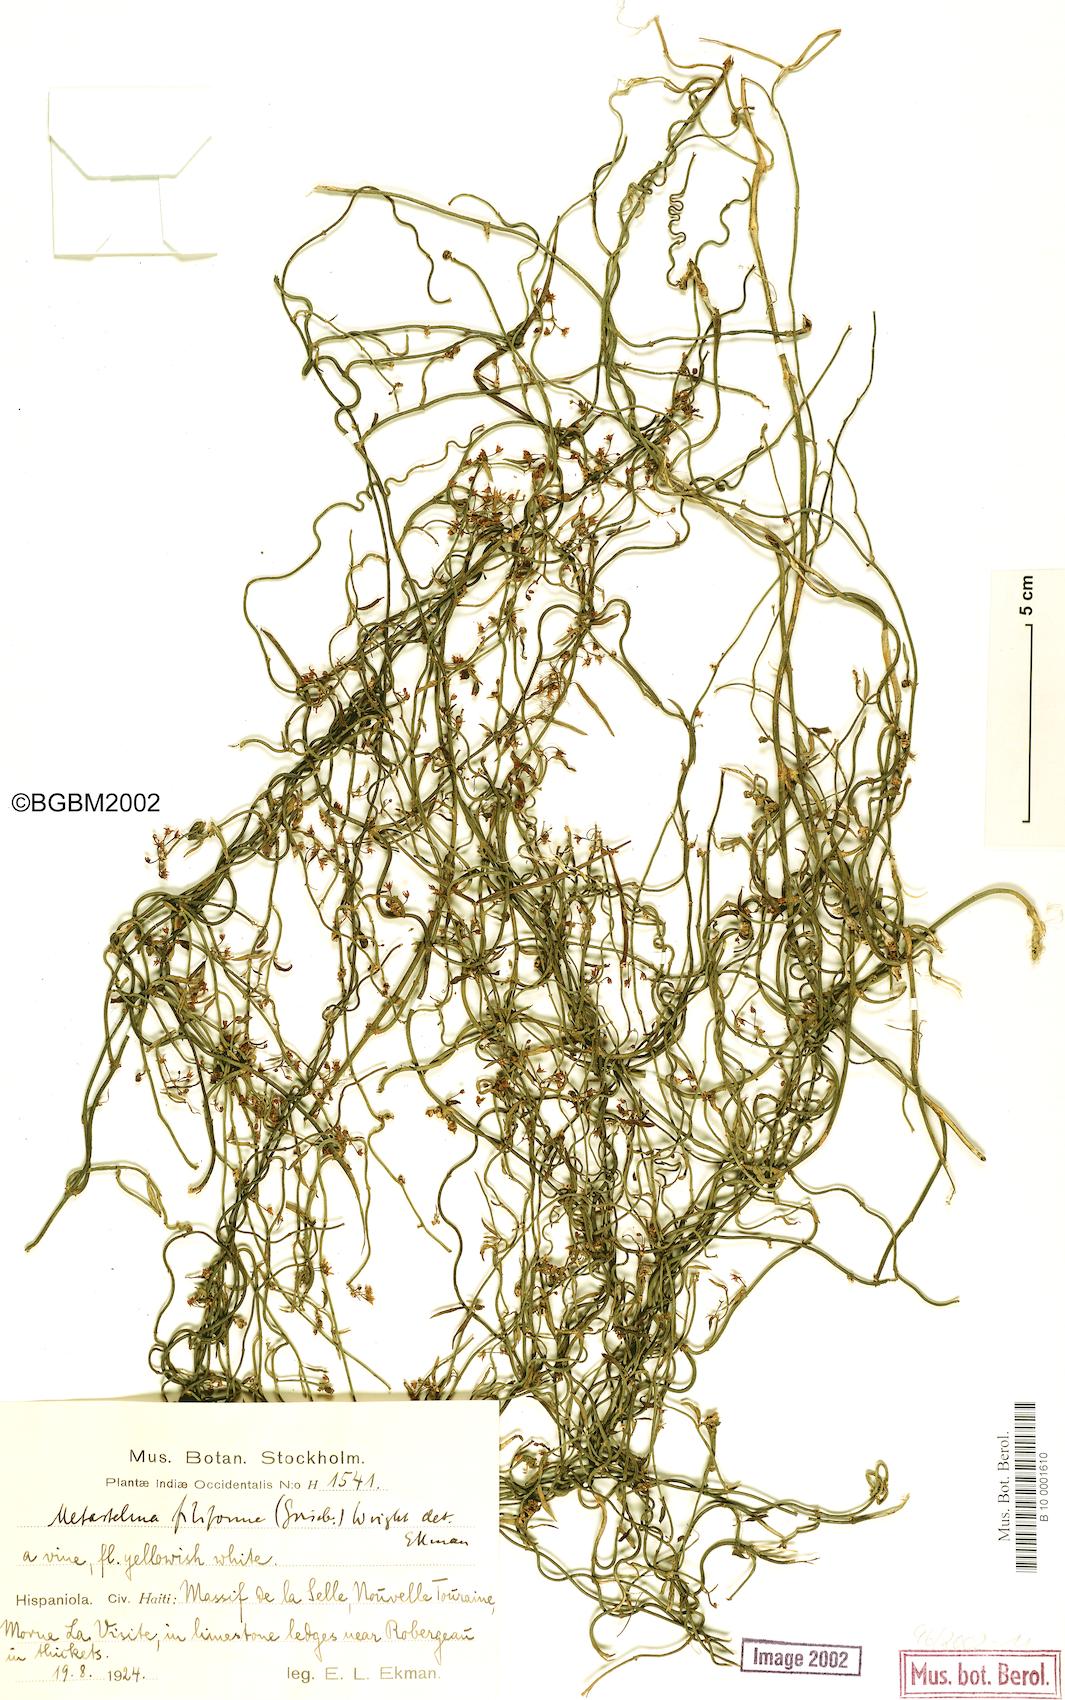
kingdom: Plantae
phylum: Tracheophyta
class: Magnoliopsida
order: Gentianales
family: Apocynaceae
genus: Orthosia
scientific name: Orthosia scoparia
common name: Leafless swallow-wort
